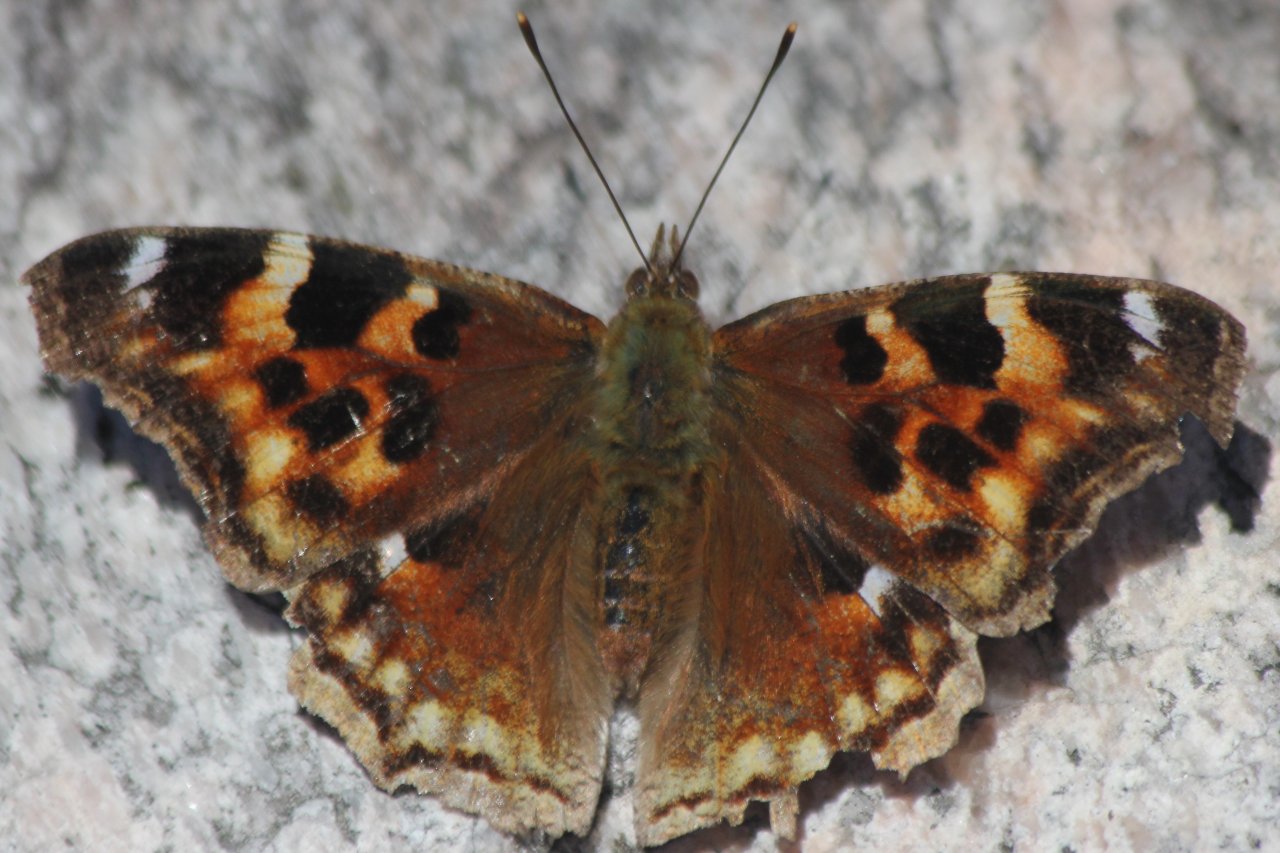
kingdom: Animalia
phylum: Arthropoda
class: Insecta
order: Lepidoptera
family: Nymphalidae
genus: Polygonia
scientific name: Polygonia vaualbum
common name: Compton Tortoiseshell
